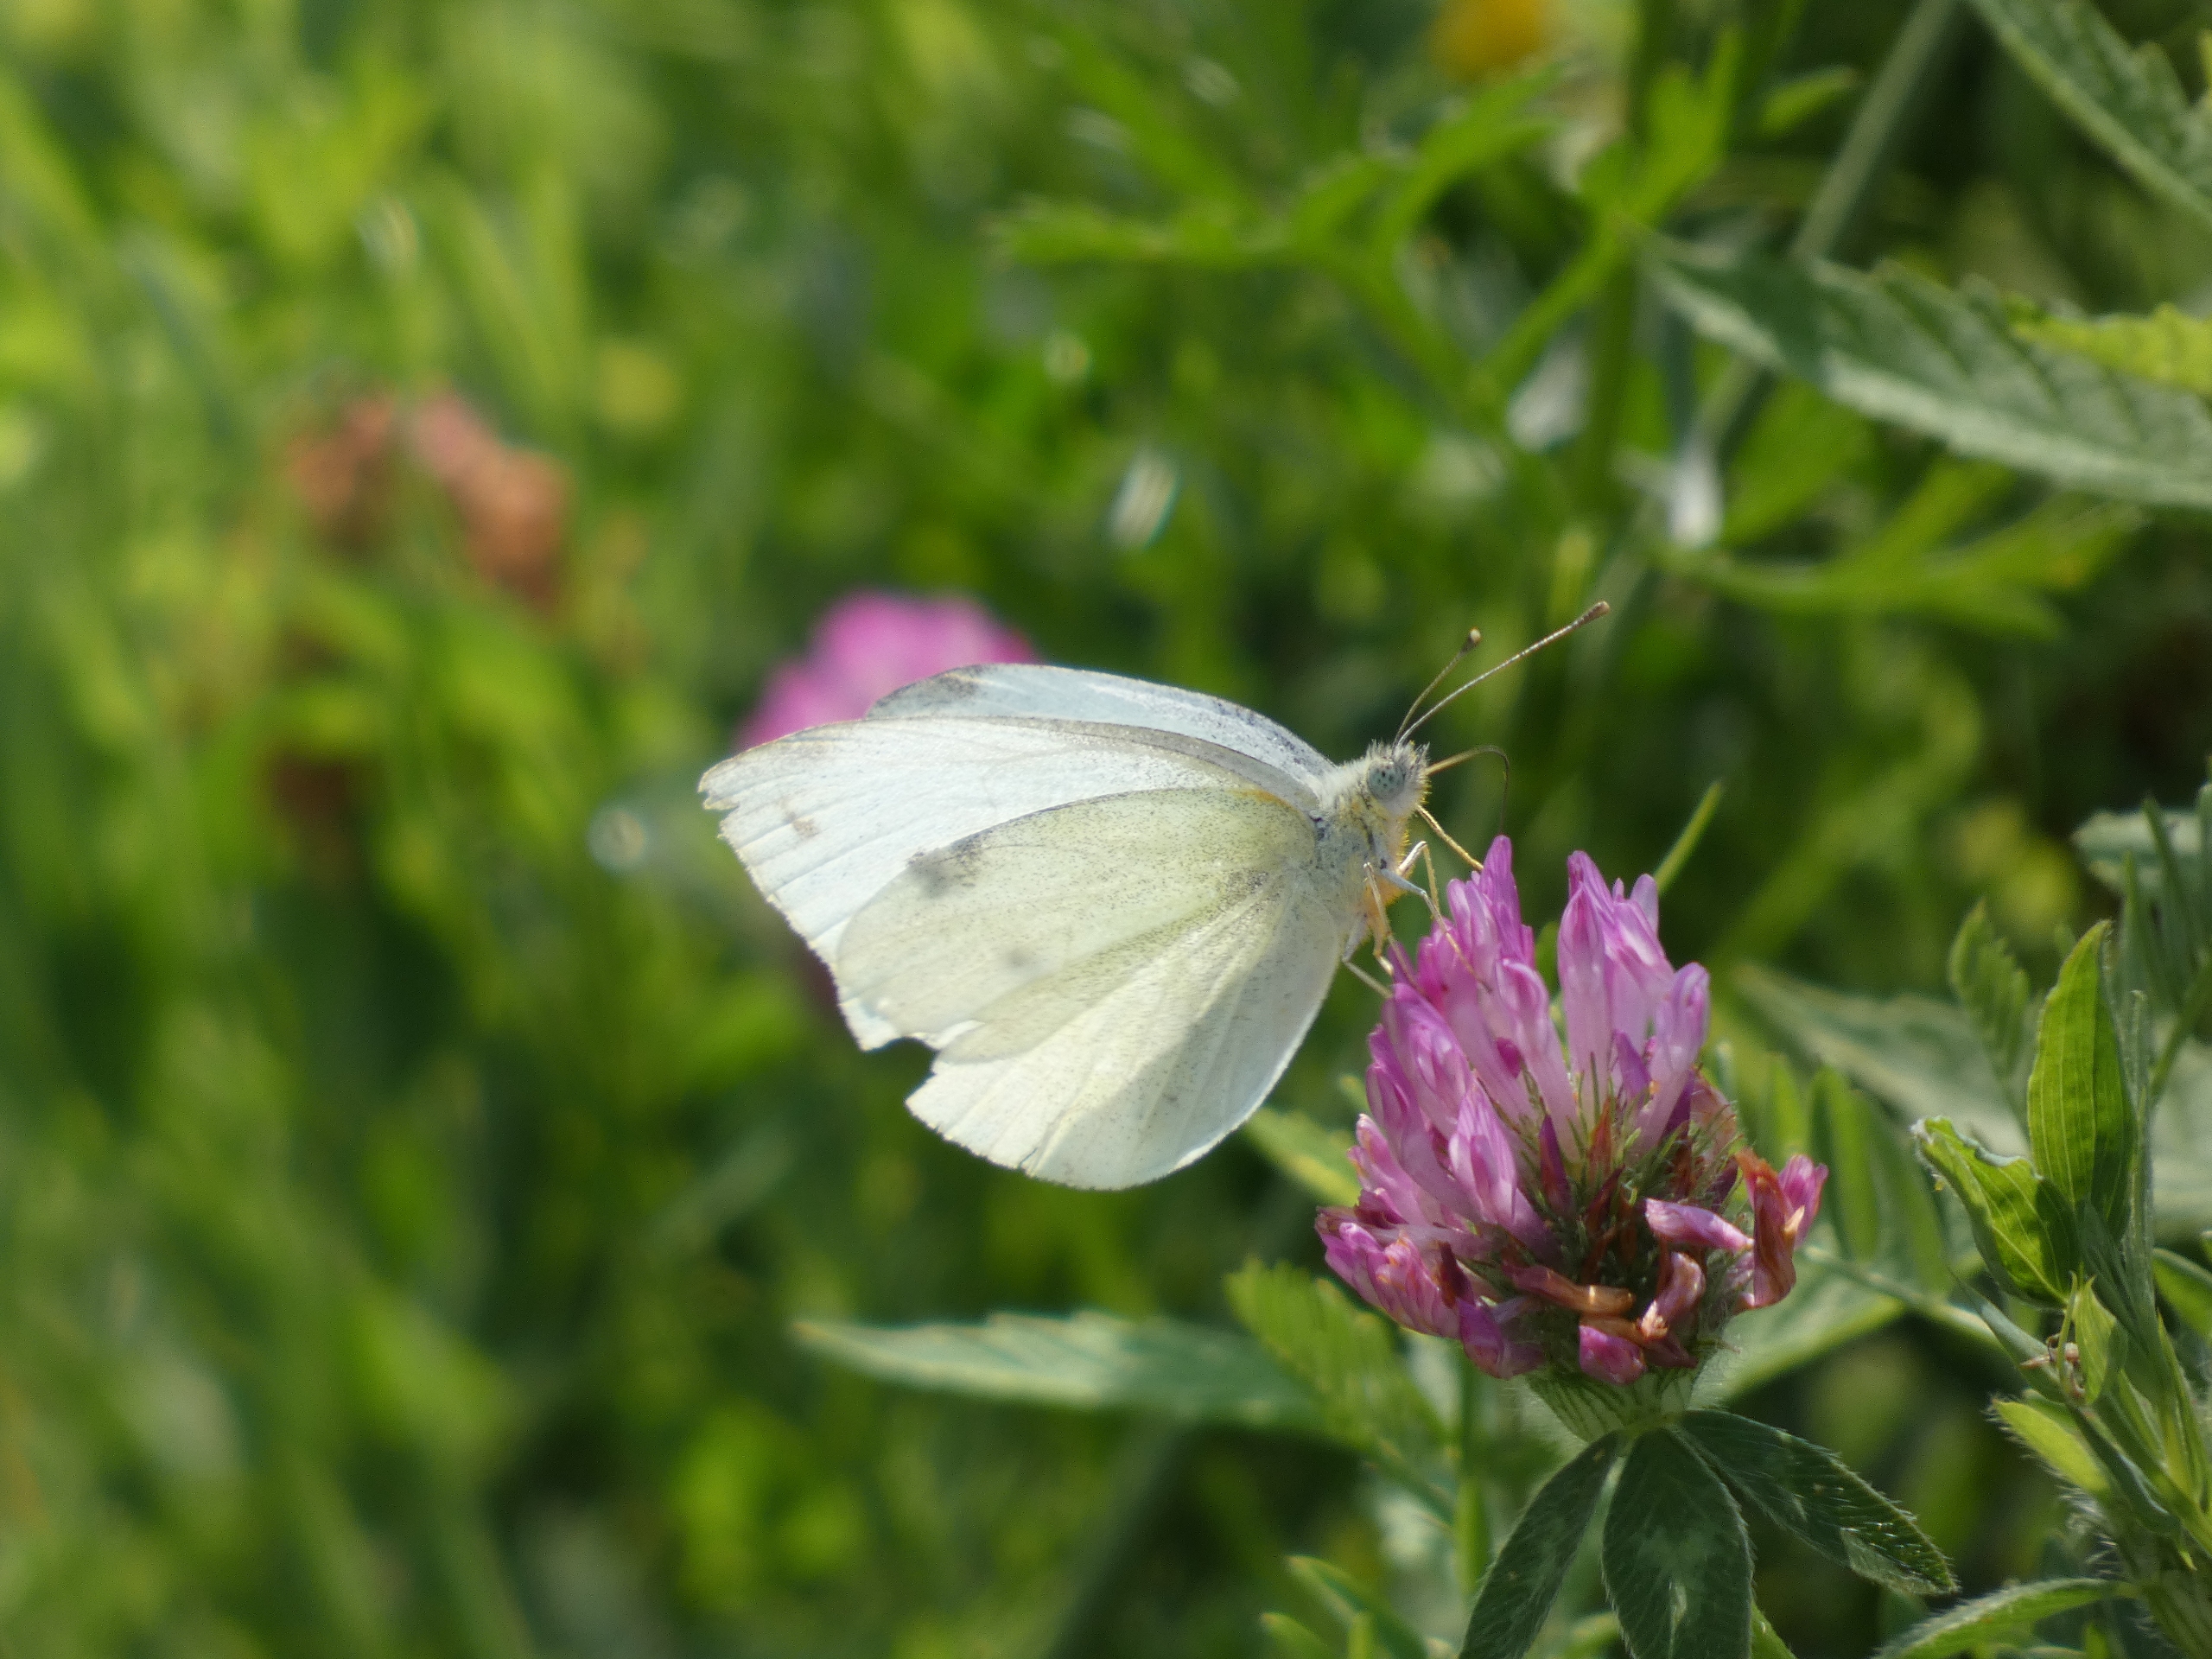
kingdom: Animalia
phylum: Arthropoda
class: Insecta
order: Lepidoptera
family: Pieridae
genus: Pieris
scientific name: Pieris rapae
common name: Lille kålsommerfugl
